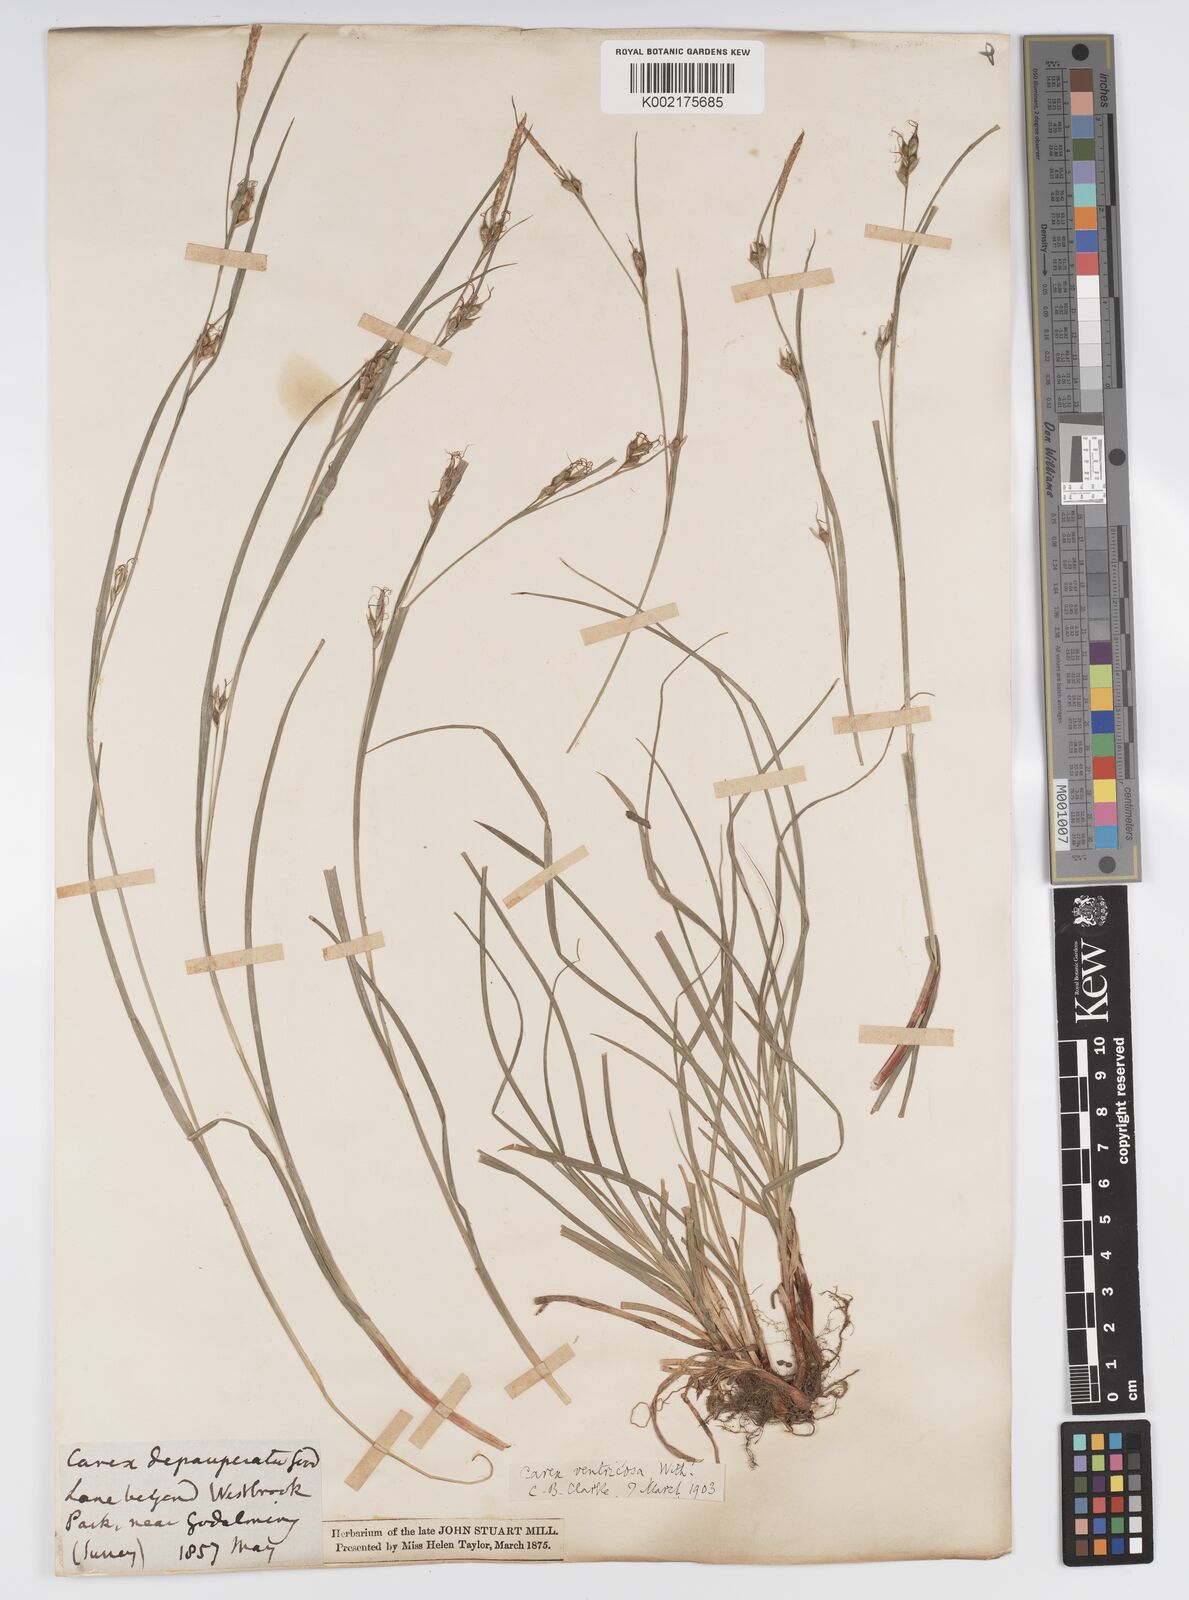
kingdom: Plantae
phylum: Tracheophyta
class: Liliopsida
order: Poales
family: Cyperaceae
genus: Carex
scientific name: Carex vaginata
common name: Sheathed sedge
